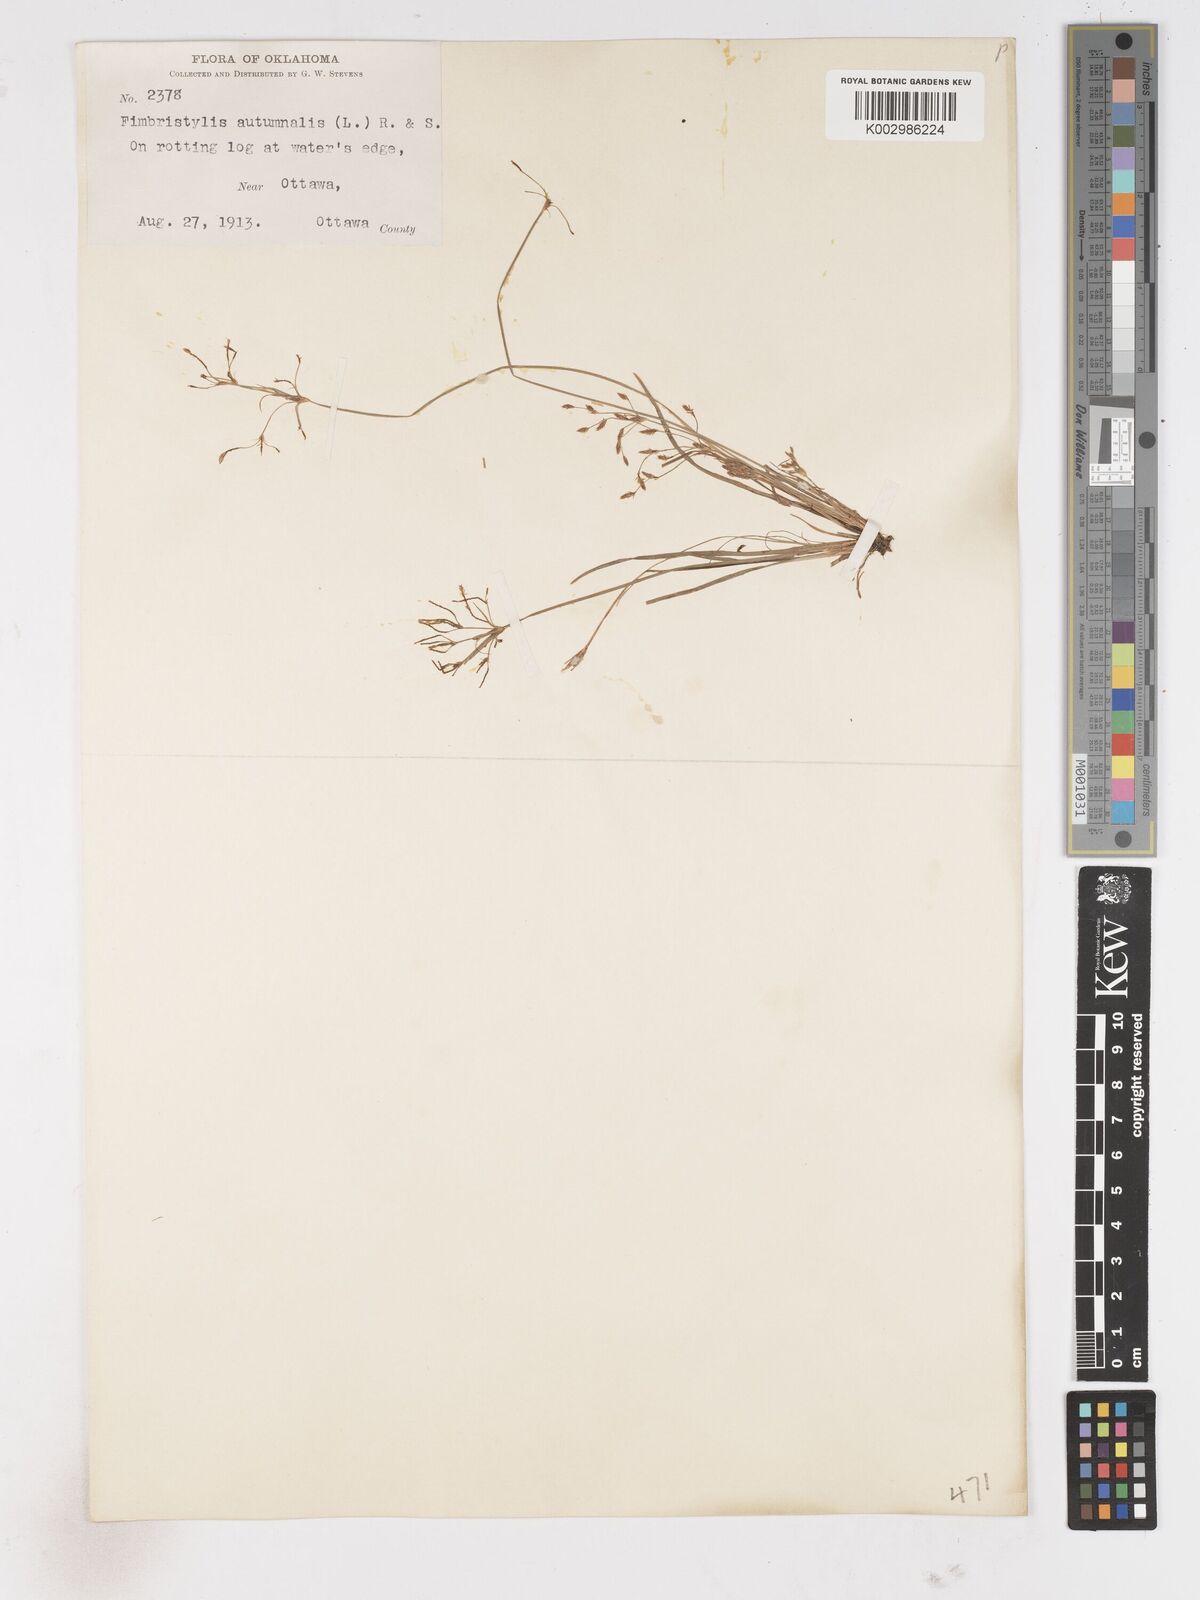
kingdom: Plantae
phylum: Tracheophyta
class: Liliopsida
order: Poales
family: Cyperaceae
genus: Fimbristylis
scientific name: Fimbristylis autumnalis
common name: Slender fimbristylis
